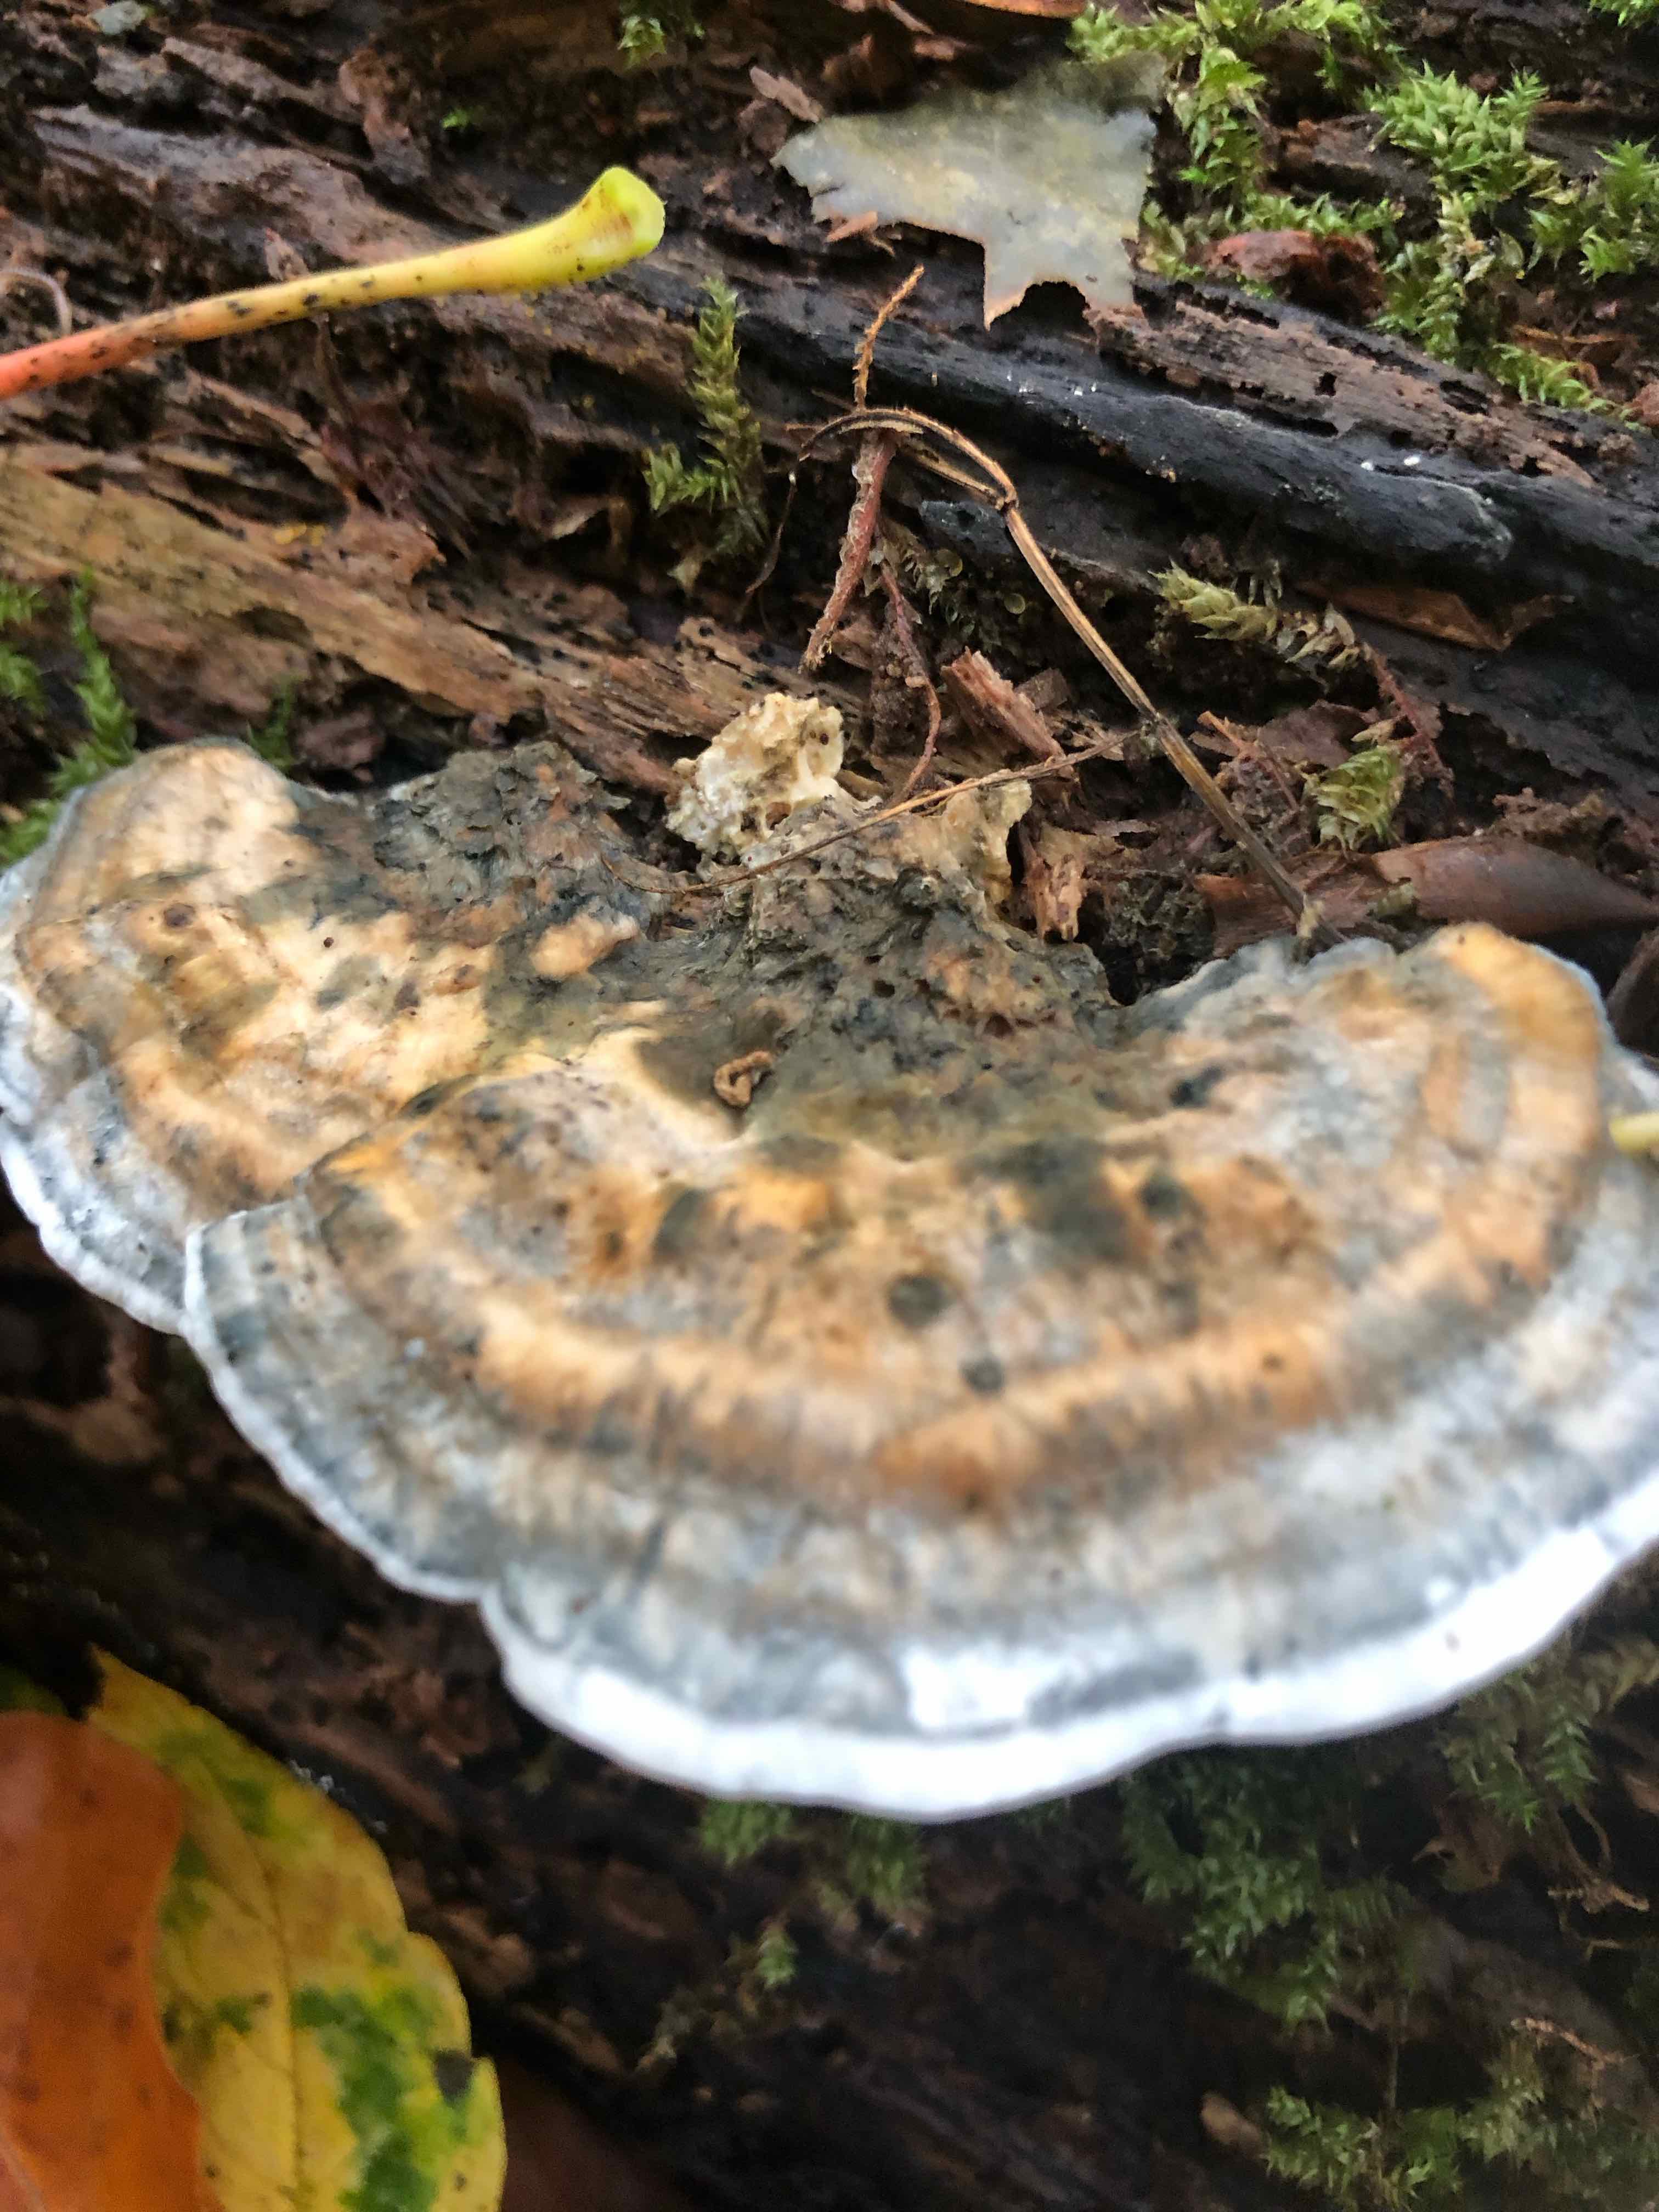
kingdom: Fungi
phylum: Basidiomycota
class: Agaricomycetes
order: Polyporales
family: Polyporaceae
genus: Cyanosporus
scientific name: Cyanosporus alni
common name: blegblå kødporesvamp
